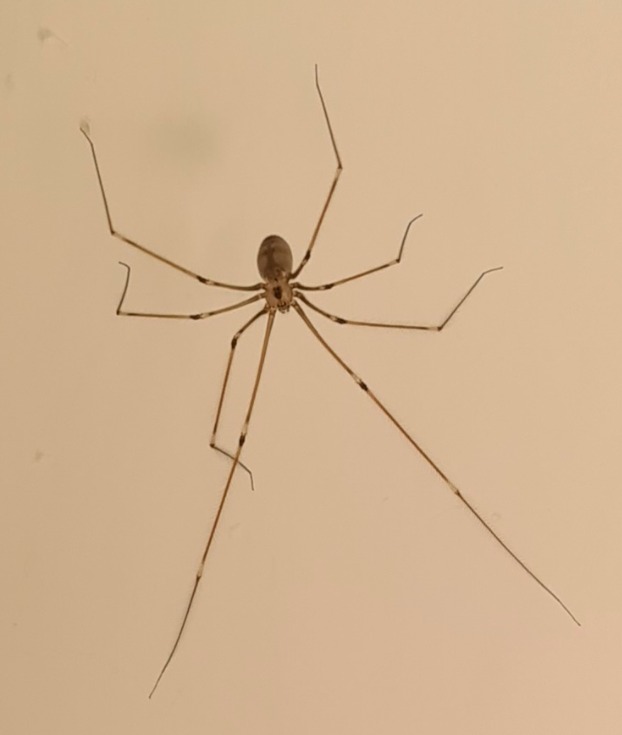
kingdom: Animalia
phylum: Arthropoda
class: Arachnida
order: Araneae
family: Pholcidae
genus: Pholcus
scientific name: Pholcus phalangioides
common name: Mejeredderkop
